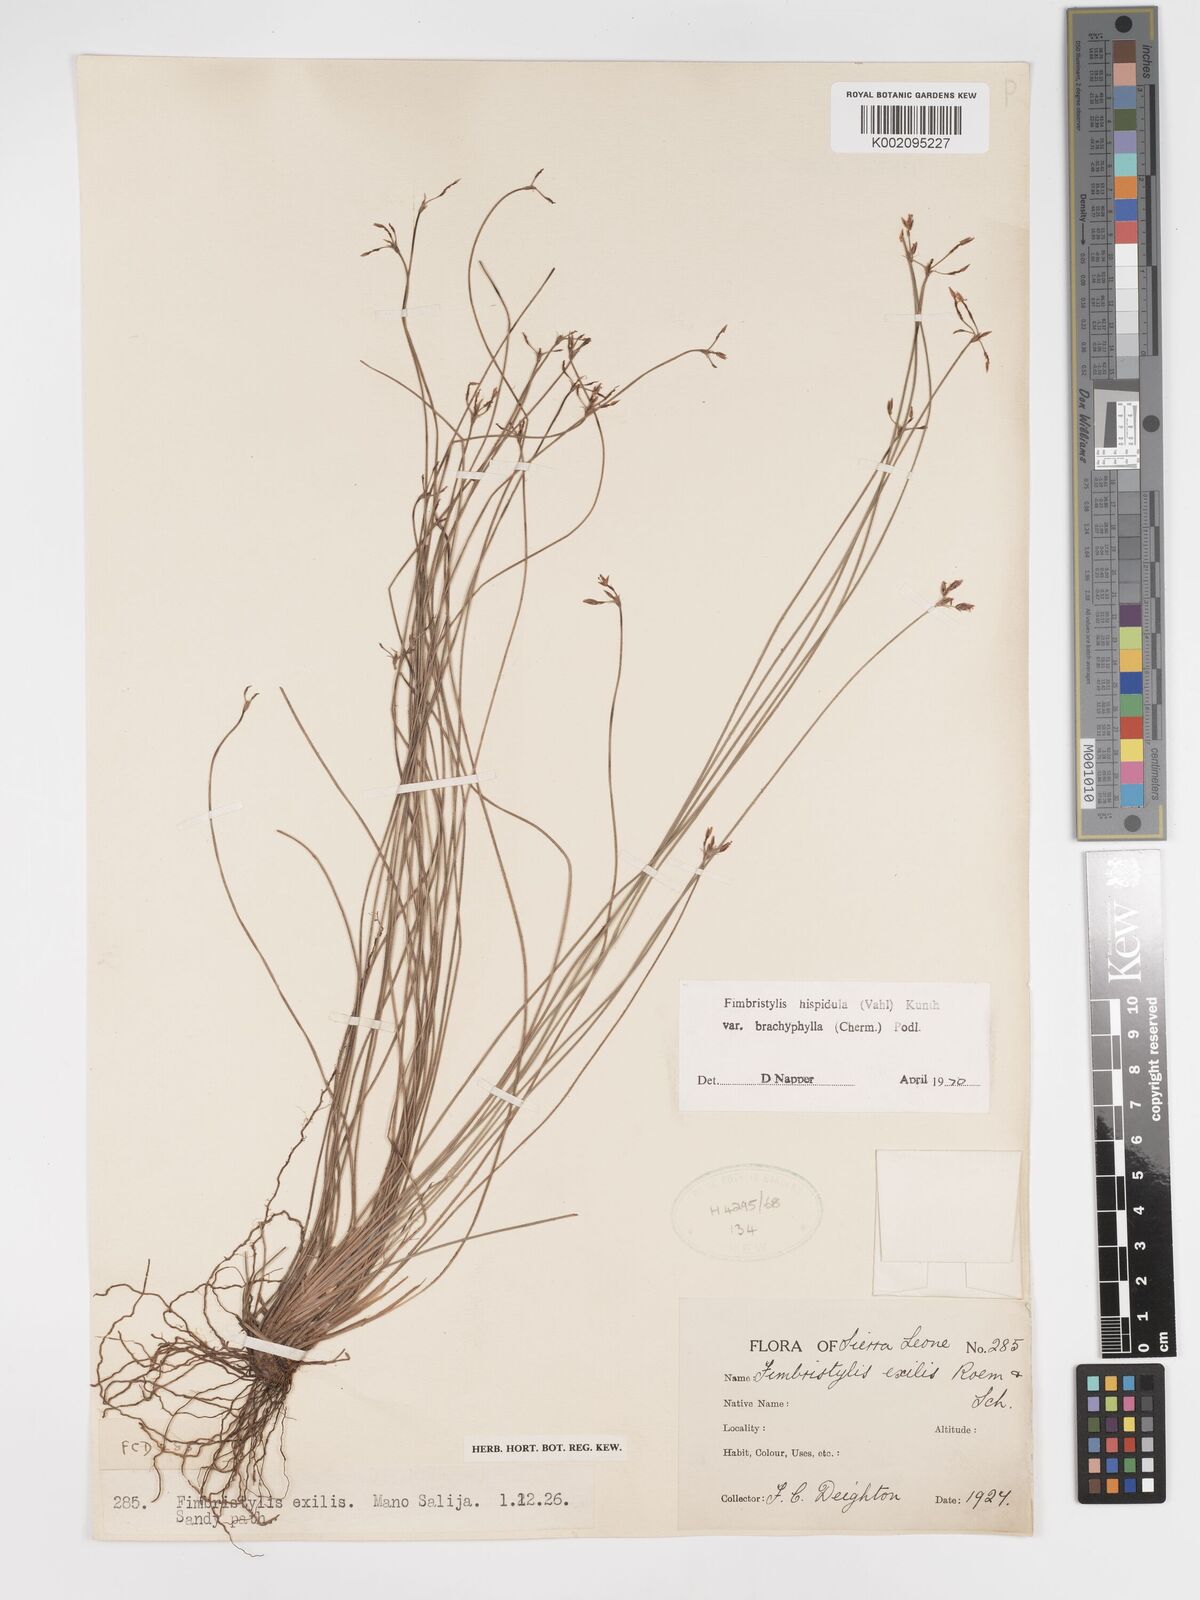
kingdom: Plantae
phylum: Tracheophyta
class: Liliopsida
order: Poales
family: Cyperaceae
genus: Bulbostylis
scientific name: Bulbostylis hispidula
